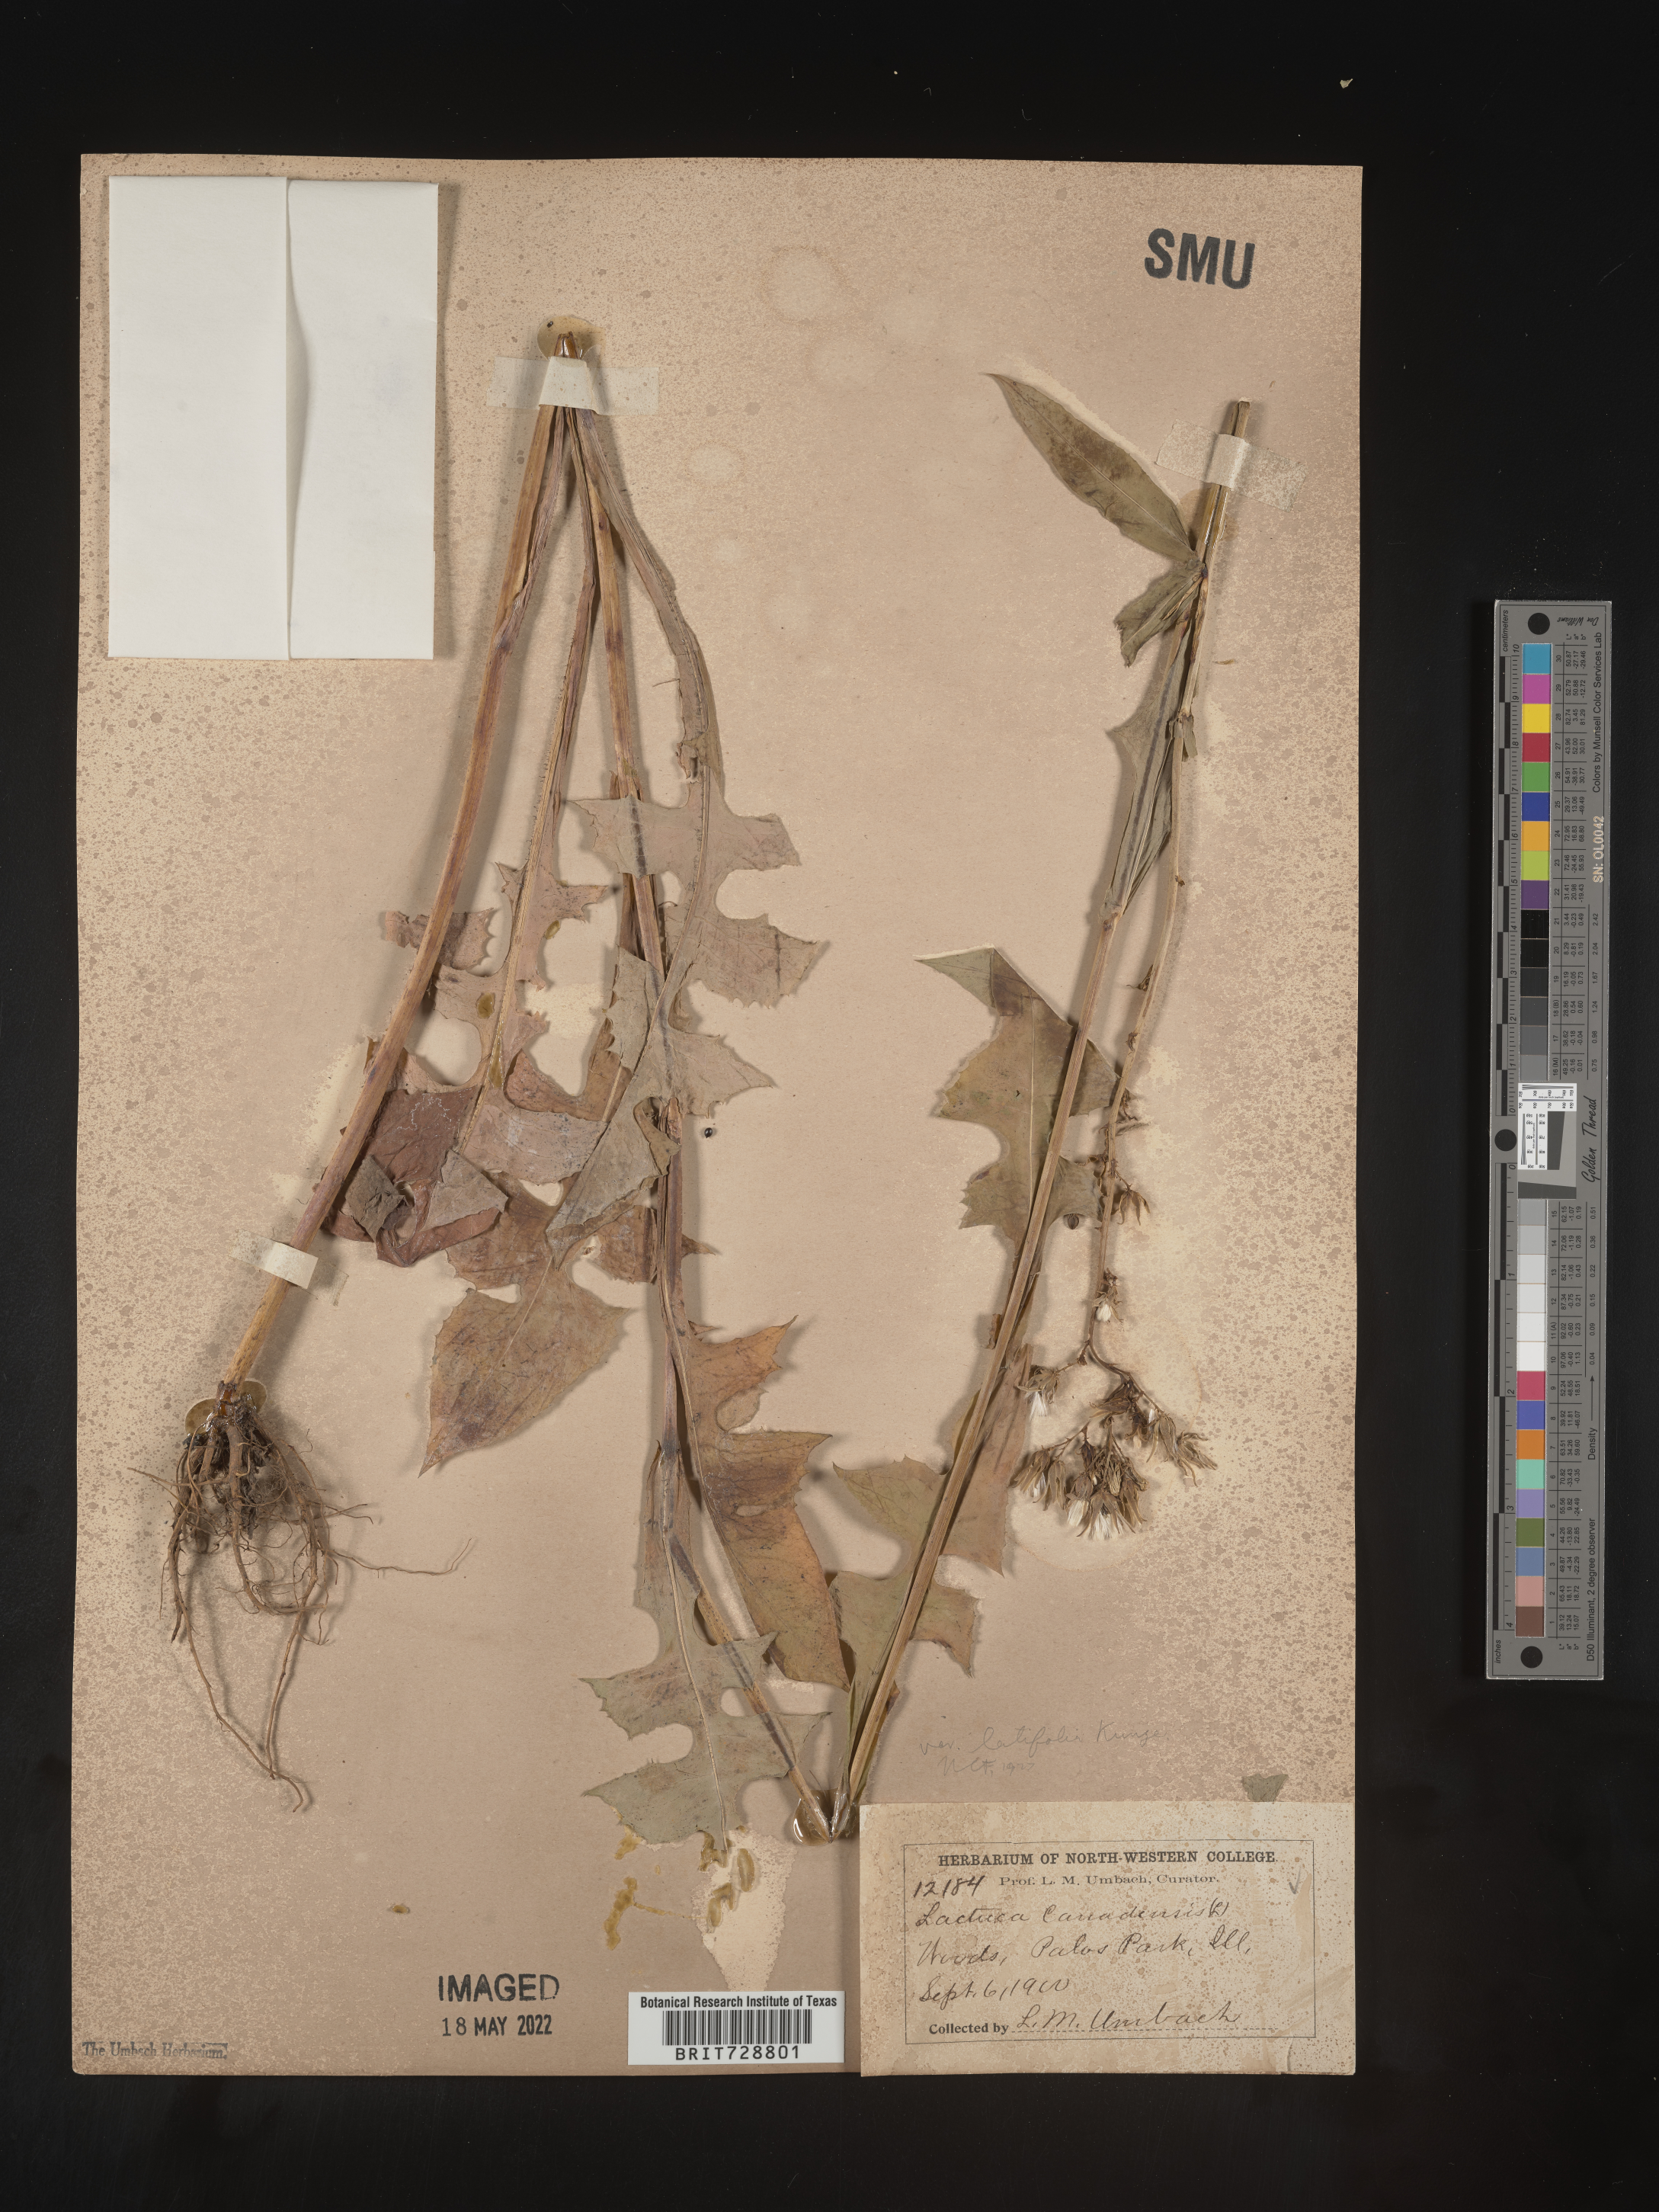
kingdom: Plantae
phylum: Tracheophyta
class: Magnoliopsida
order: Asterales
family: Asteraceae
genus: Lactuca
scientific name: Lactuca canadensis
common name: Canada lettuce
